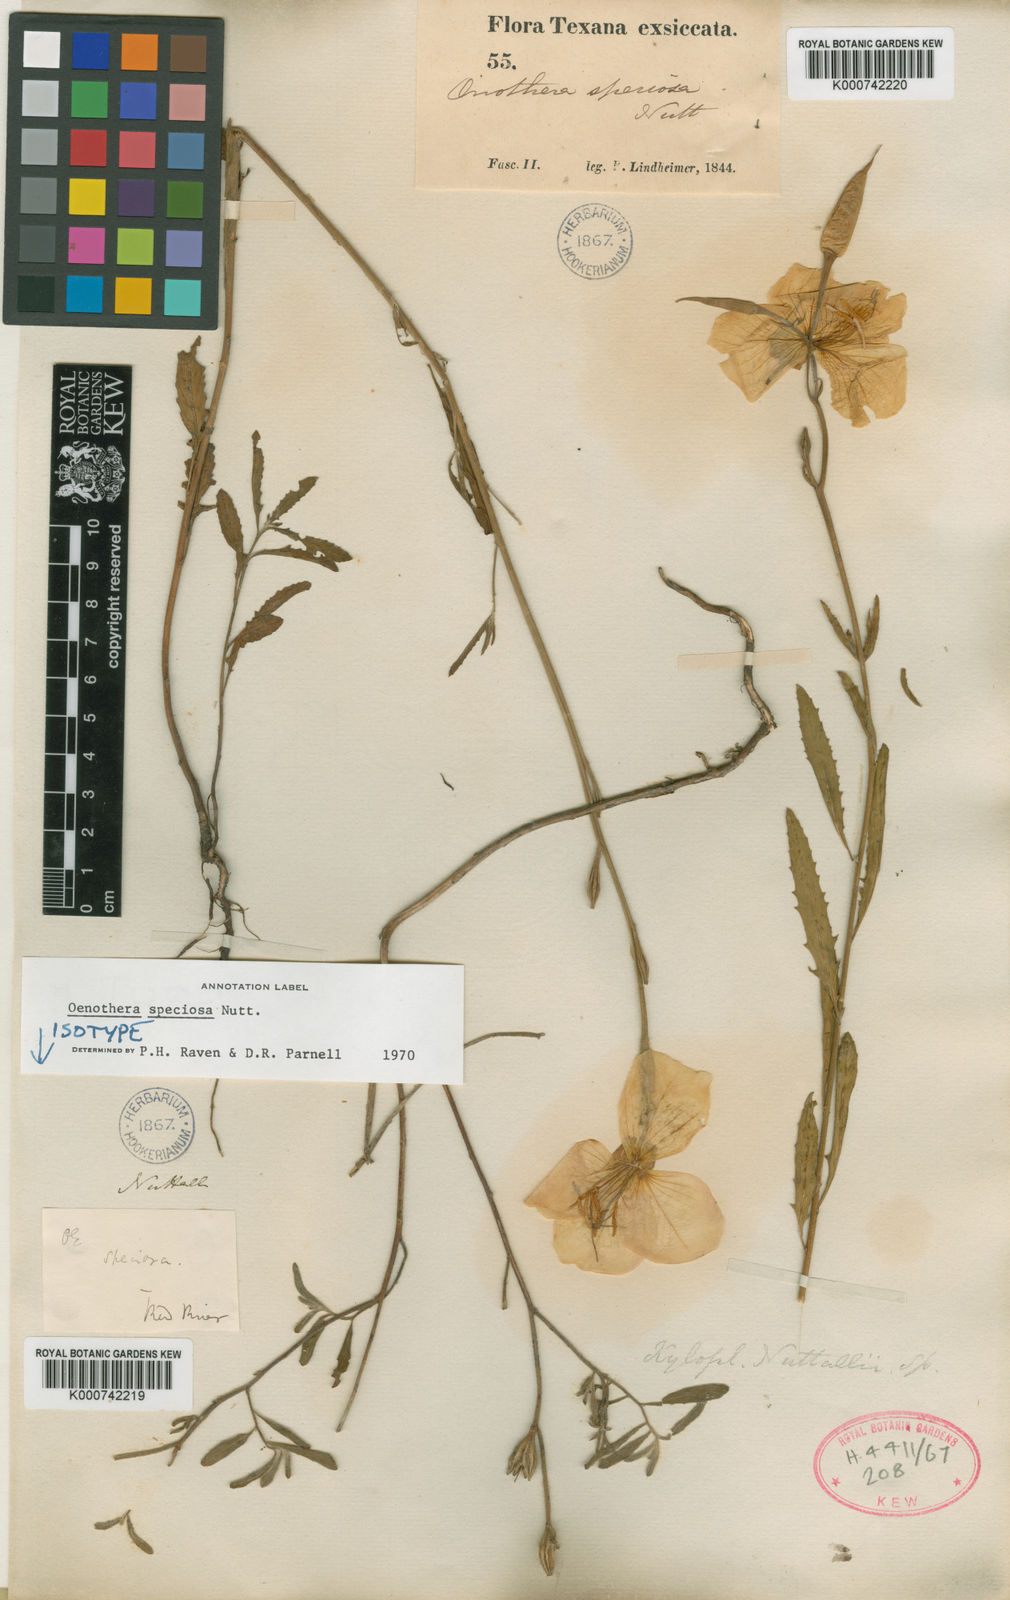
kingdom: Plantae
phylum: Tracheophyta
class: Magnoliopsida
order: Myrtales
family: Onagraceae
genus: Oenothera
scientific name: Oenothera speciosa
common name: White evening-primrose
